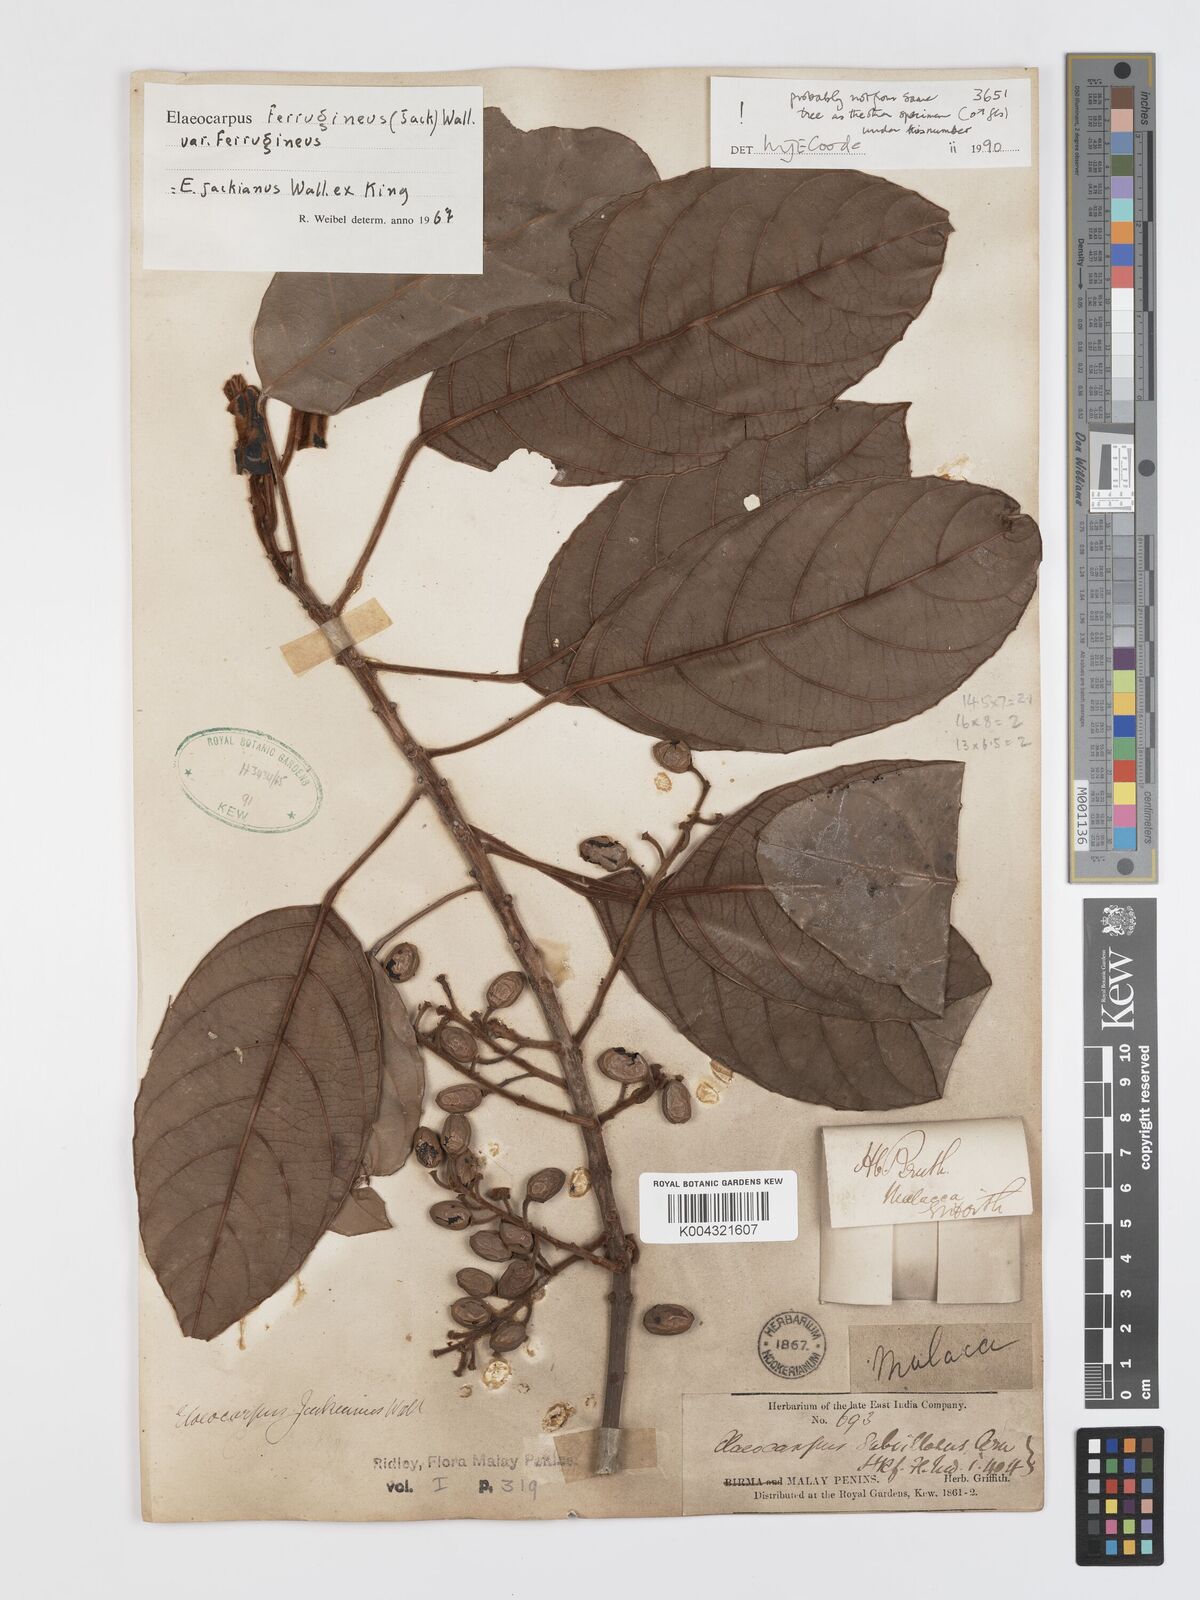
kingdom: Plantae
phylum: Tracheophyta
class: Magnoliopsida
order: Oxalidales
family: Elaeocarpaceae
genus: Elaeocarpus
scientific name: Elaeocarpus ferrugineus
